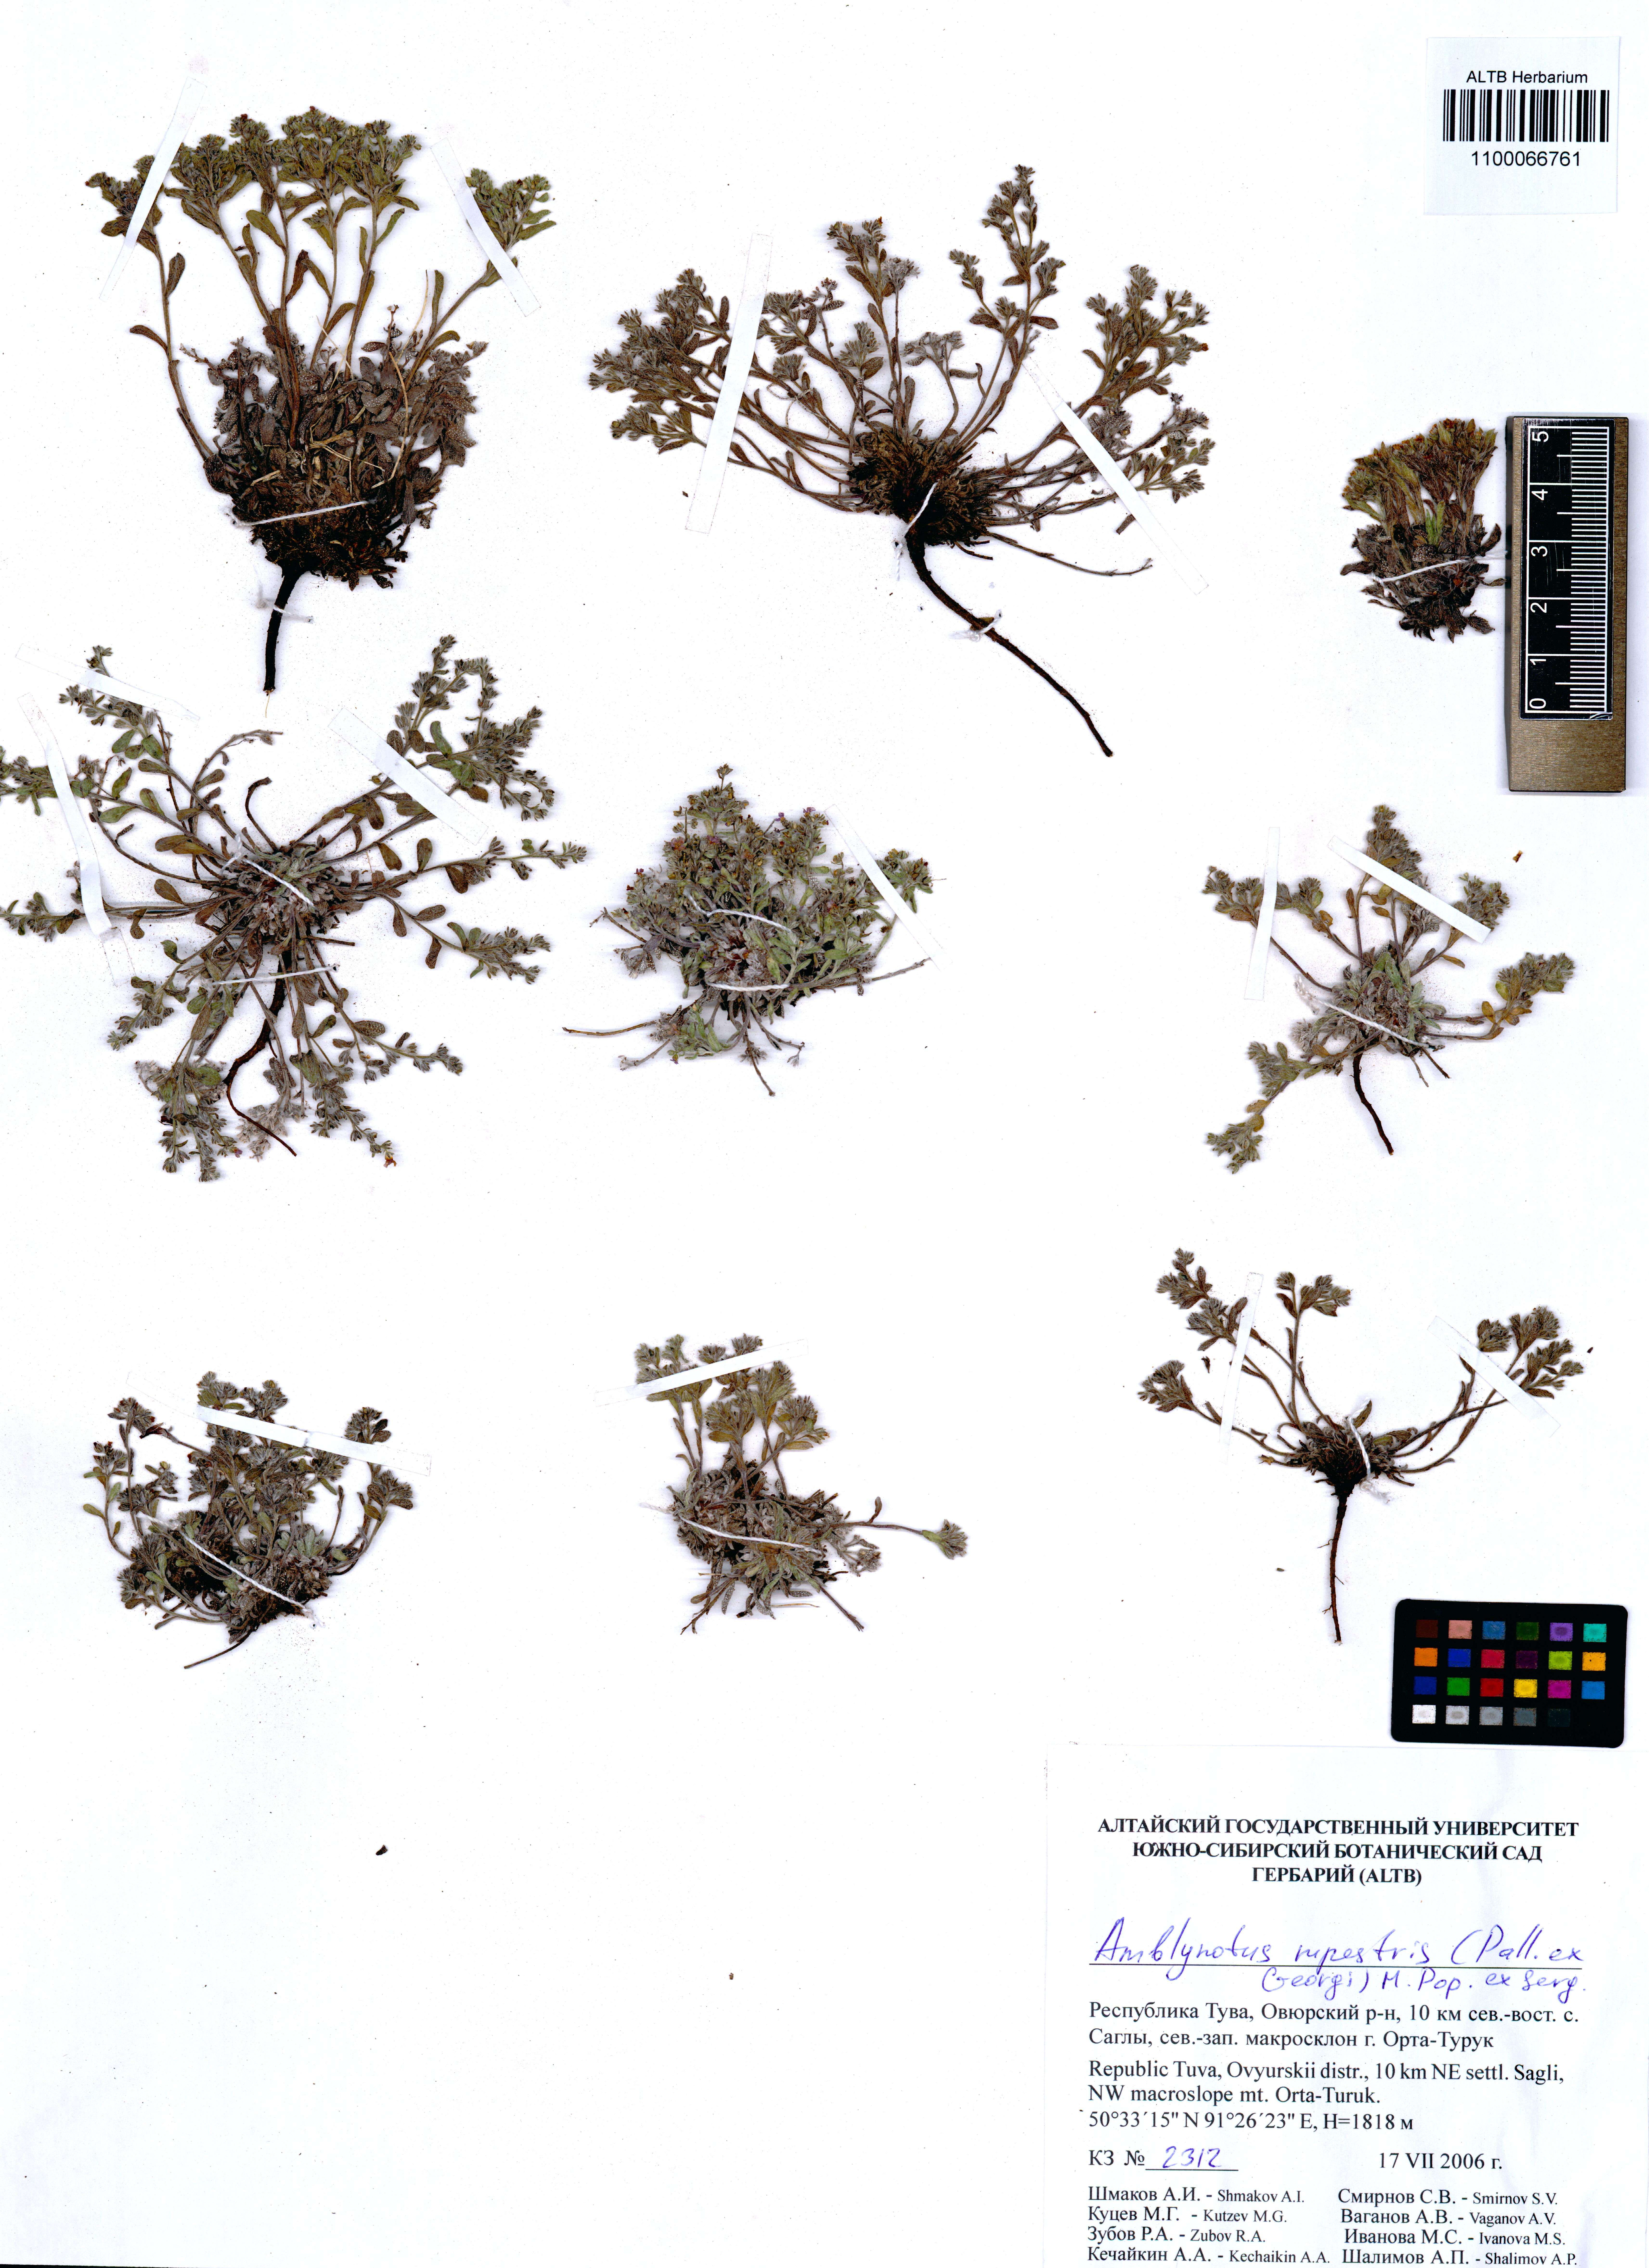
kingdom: Plantae
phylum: Tracheophyta
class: Magnoliopsida
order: Boraginales
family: Boraginaceae
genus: Eritrichium
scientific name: Eritrichium rupestre
